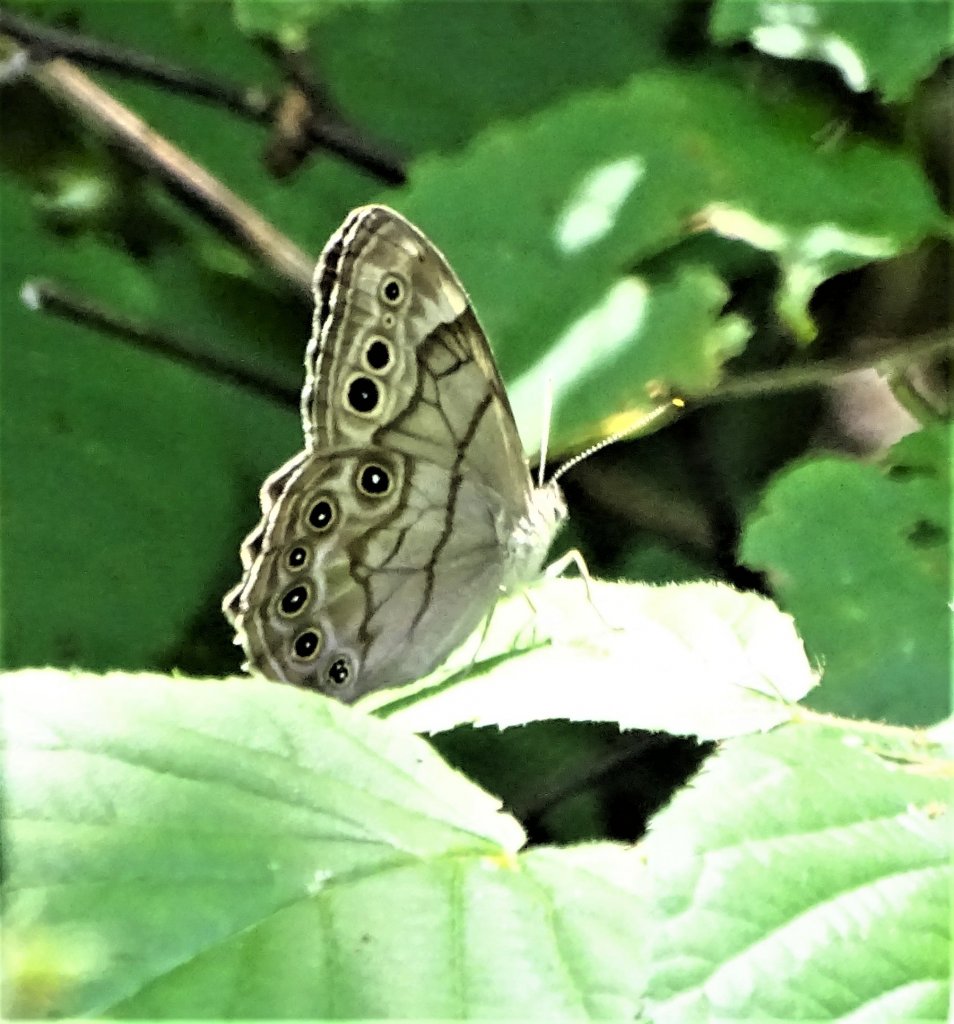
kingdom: Animalia
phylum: Arthropoda
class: Insecta
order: Lepidoptera
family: Nymphalidae
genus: Lethe
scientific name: Lethe anthedon
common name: Northern Pearly-Eye
